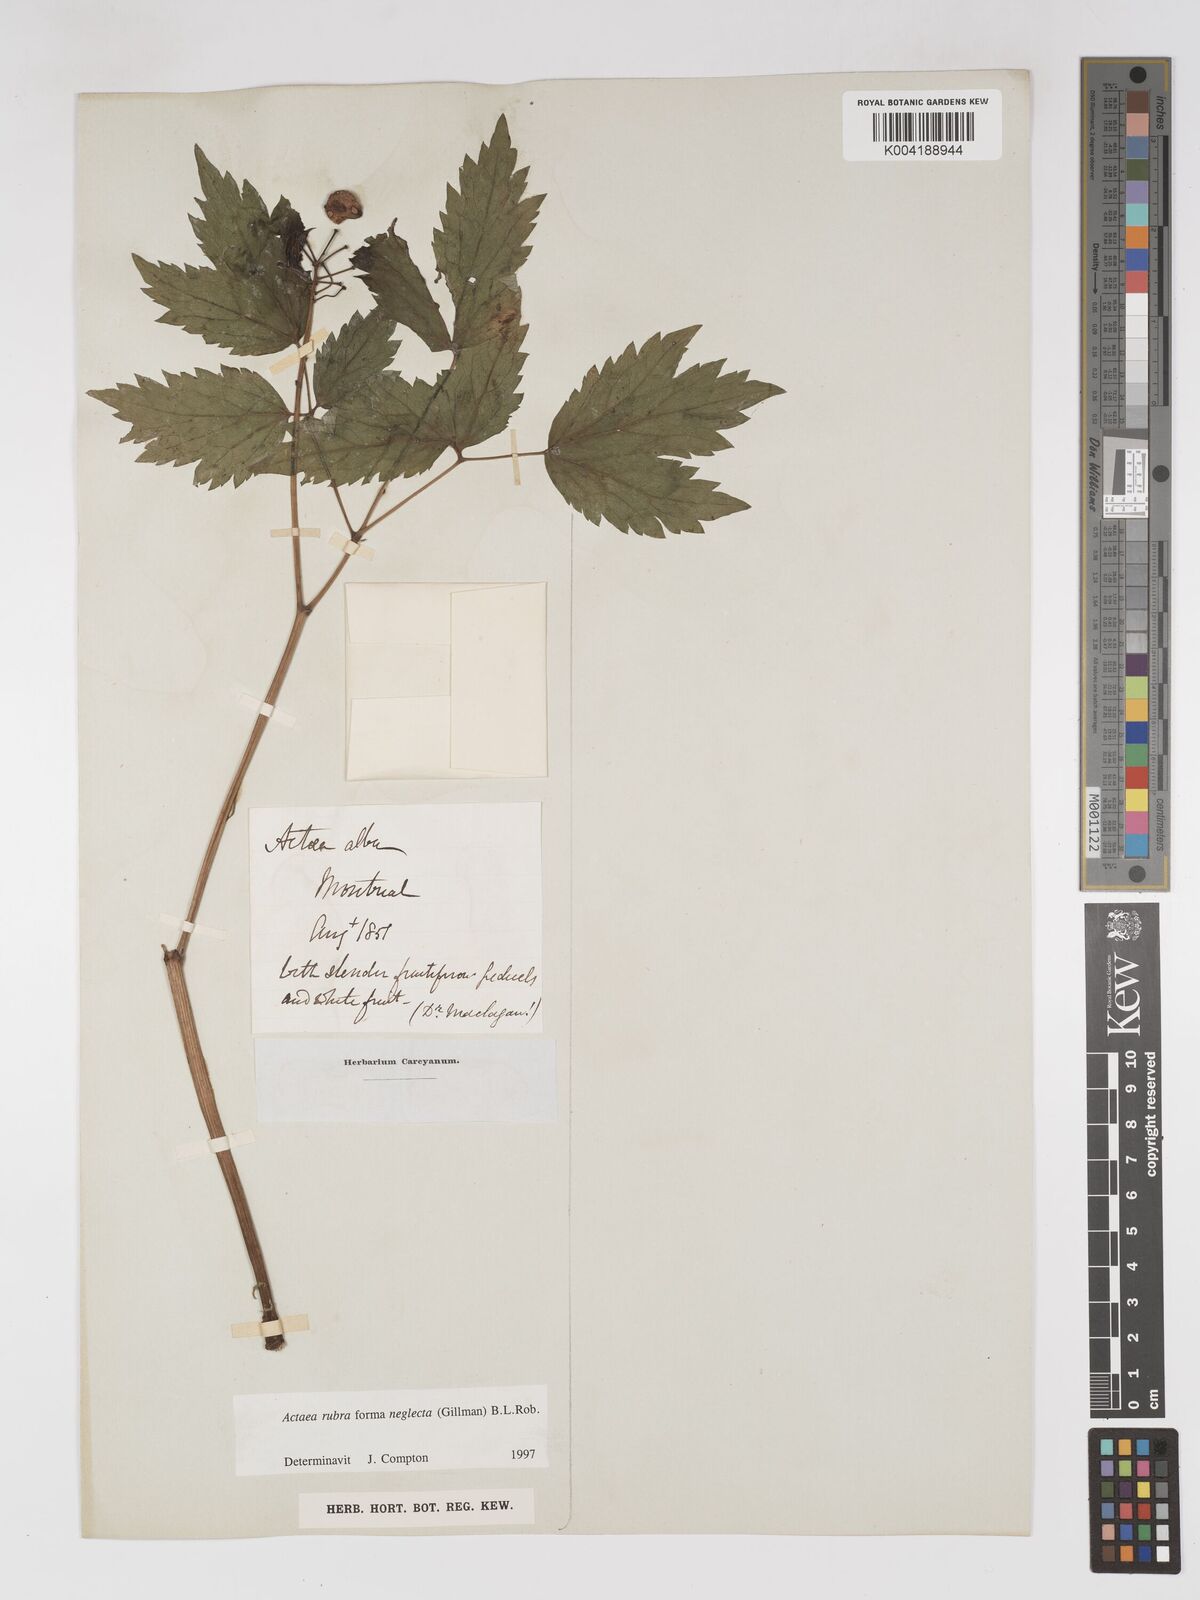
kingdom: Plantae
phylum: Tracheophyta
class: Magnoliopsida
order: Ranunculales
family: Ranunculaceae
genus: Actaea
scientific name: Actaea rubra
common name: Red baneberry
